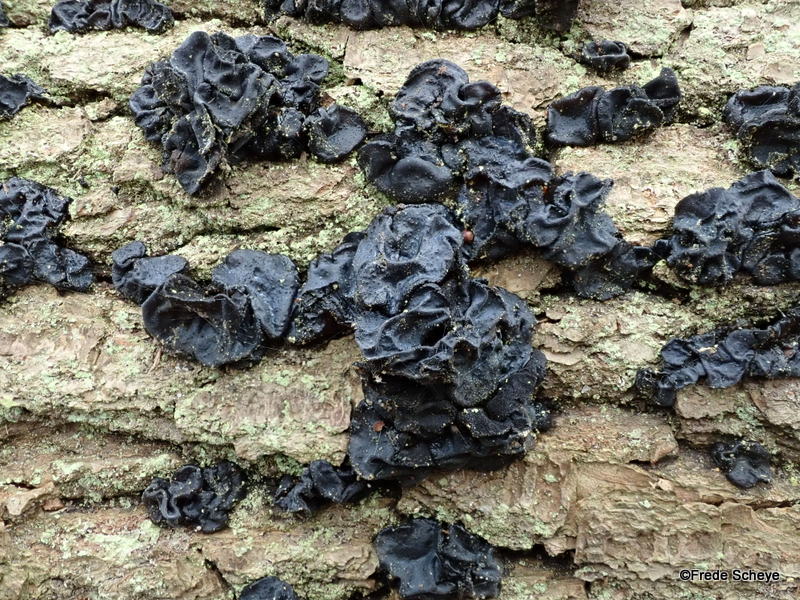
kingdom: Fungi
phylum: Basidiomycota
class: Agaricomycetes
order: Auriculariales
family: Auriculariaceae
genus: Exidia
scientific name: Exidia glandulosa
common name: ege-bævretop
